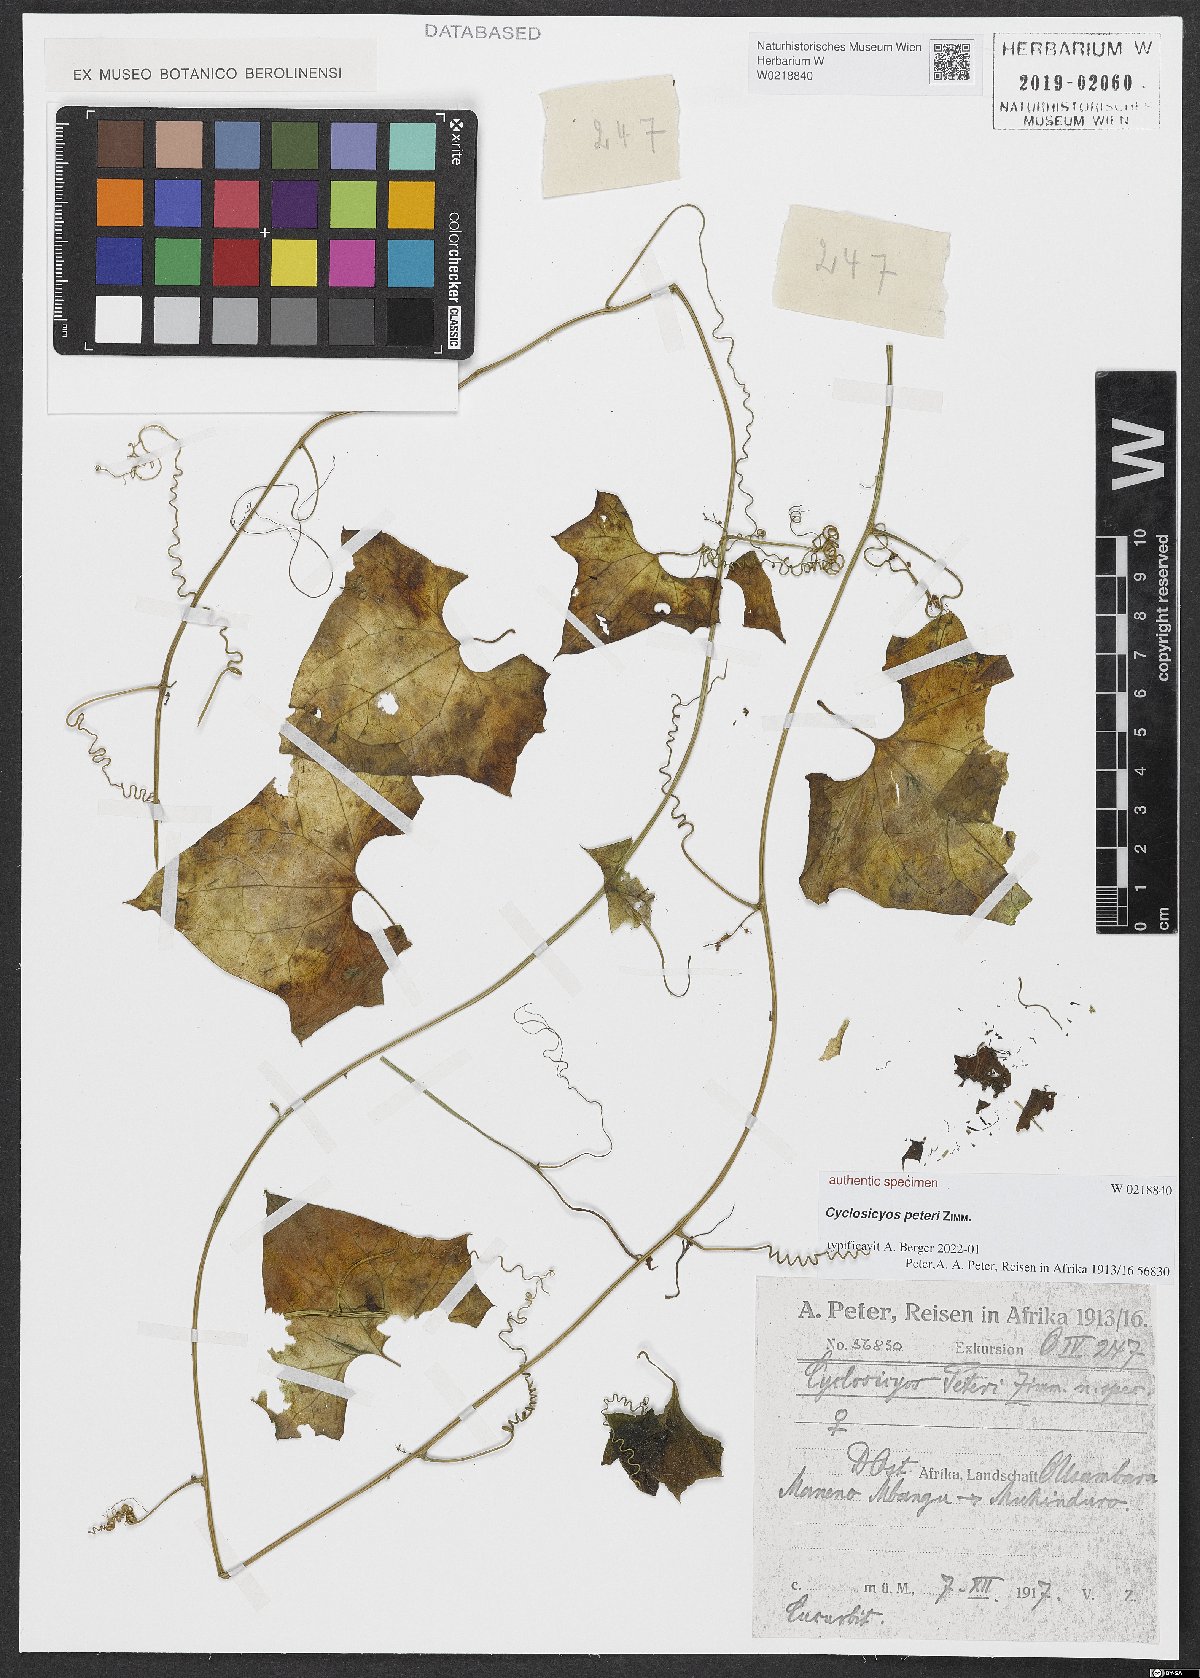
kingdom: Plantae
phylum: Tracheophyta
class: Magnoliopsida
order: Cucurbitales
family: Cucurbitaceae
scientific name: Cucurbitaceae
